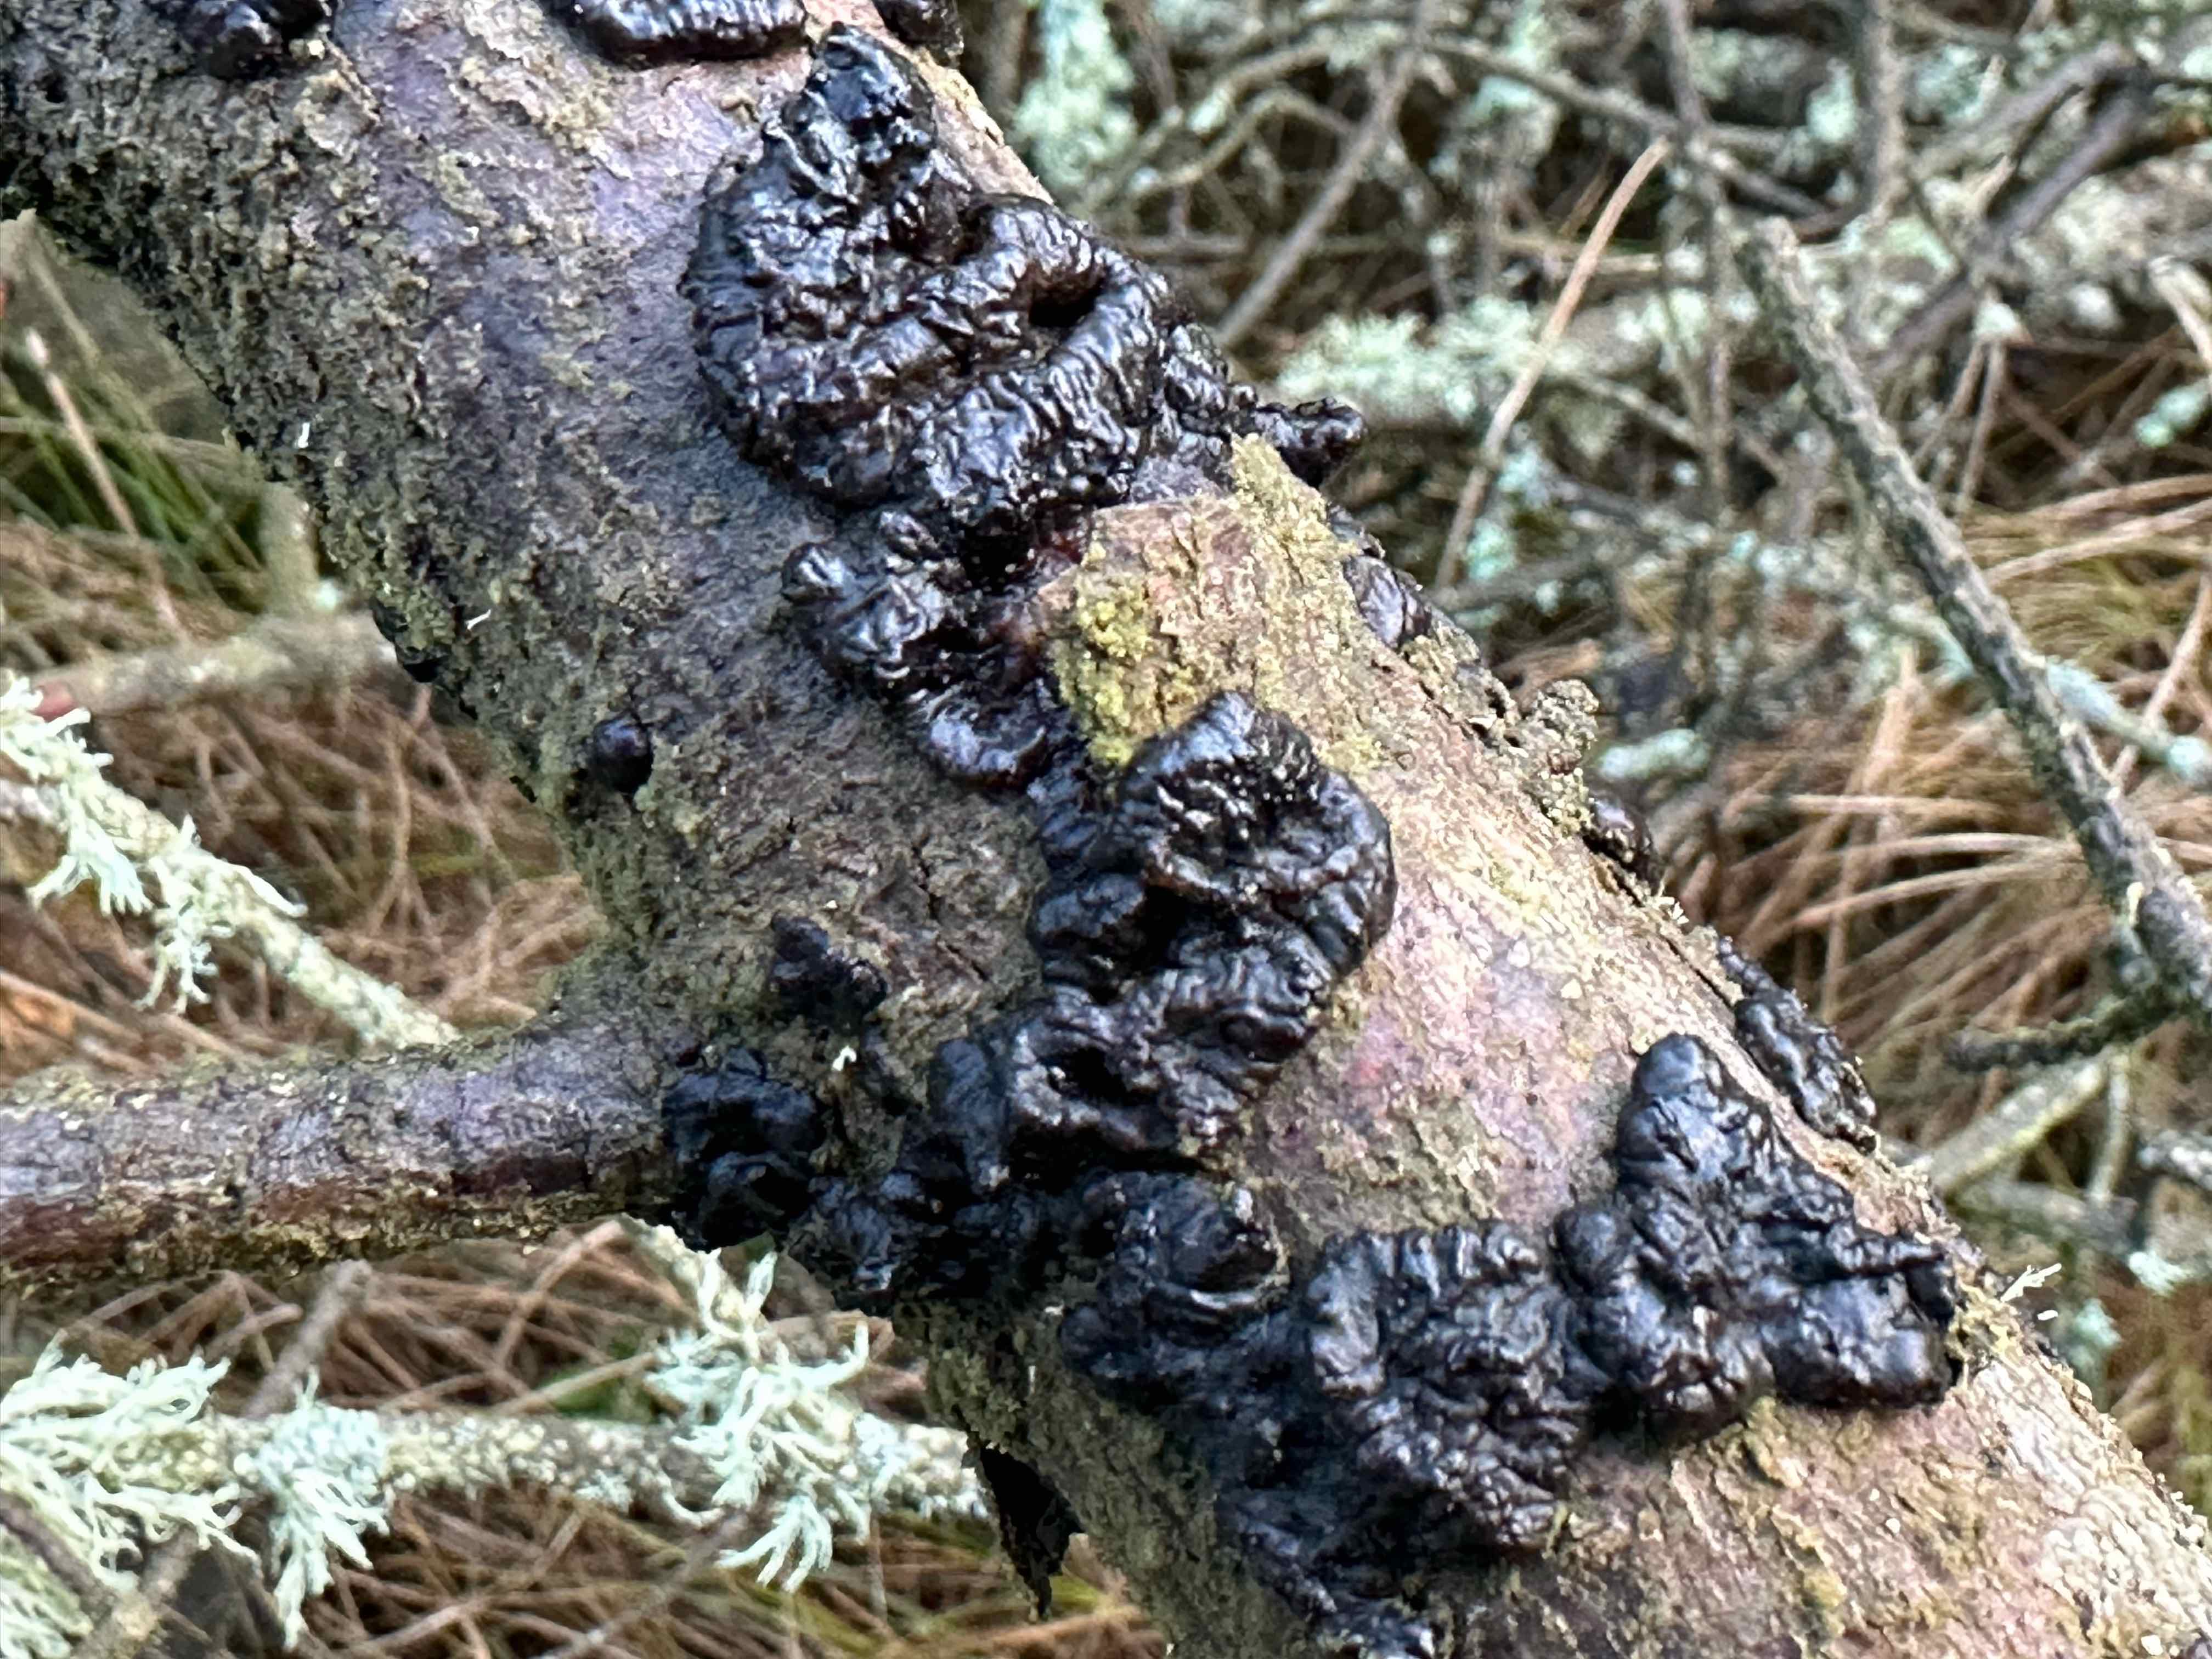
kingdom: Fungi
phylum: Basidiomycota
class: Agaricomycetes
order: Auriculariales
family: Auriculariaceae
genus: Exidia
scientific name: Exidia pithya
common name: gran-bævretop
